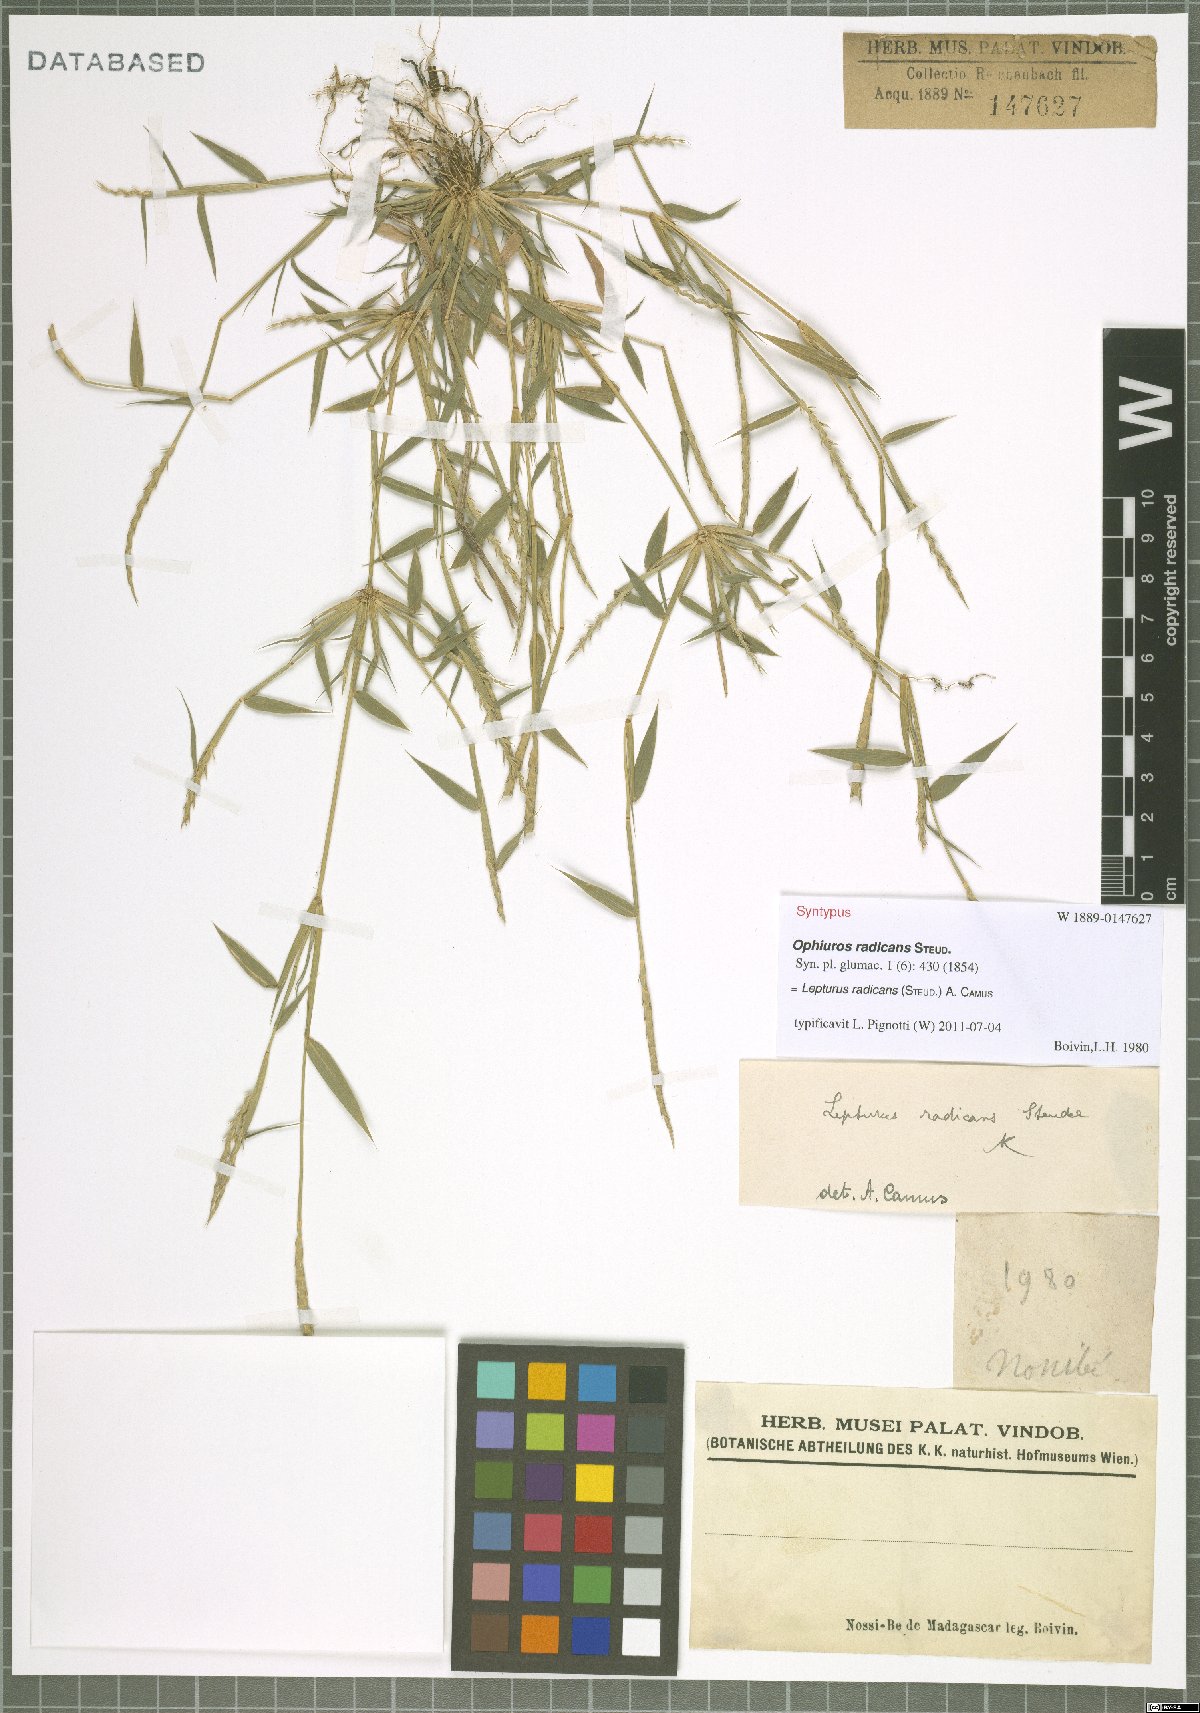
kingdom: Plantae
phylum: Tracheophyta
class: Liliopsida
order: Poales
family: Poaceae
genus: Lepturus
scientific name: Lepturus radicans
